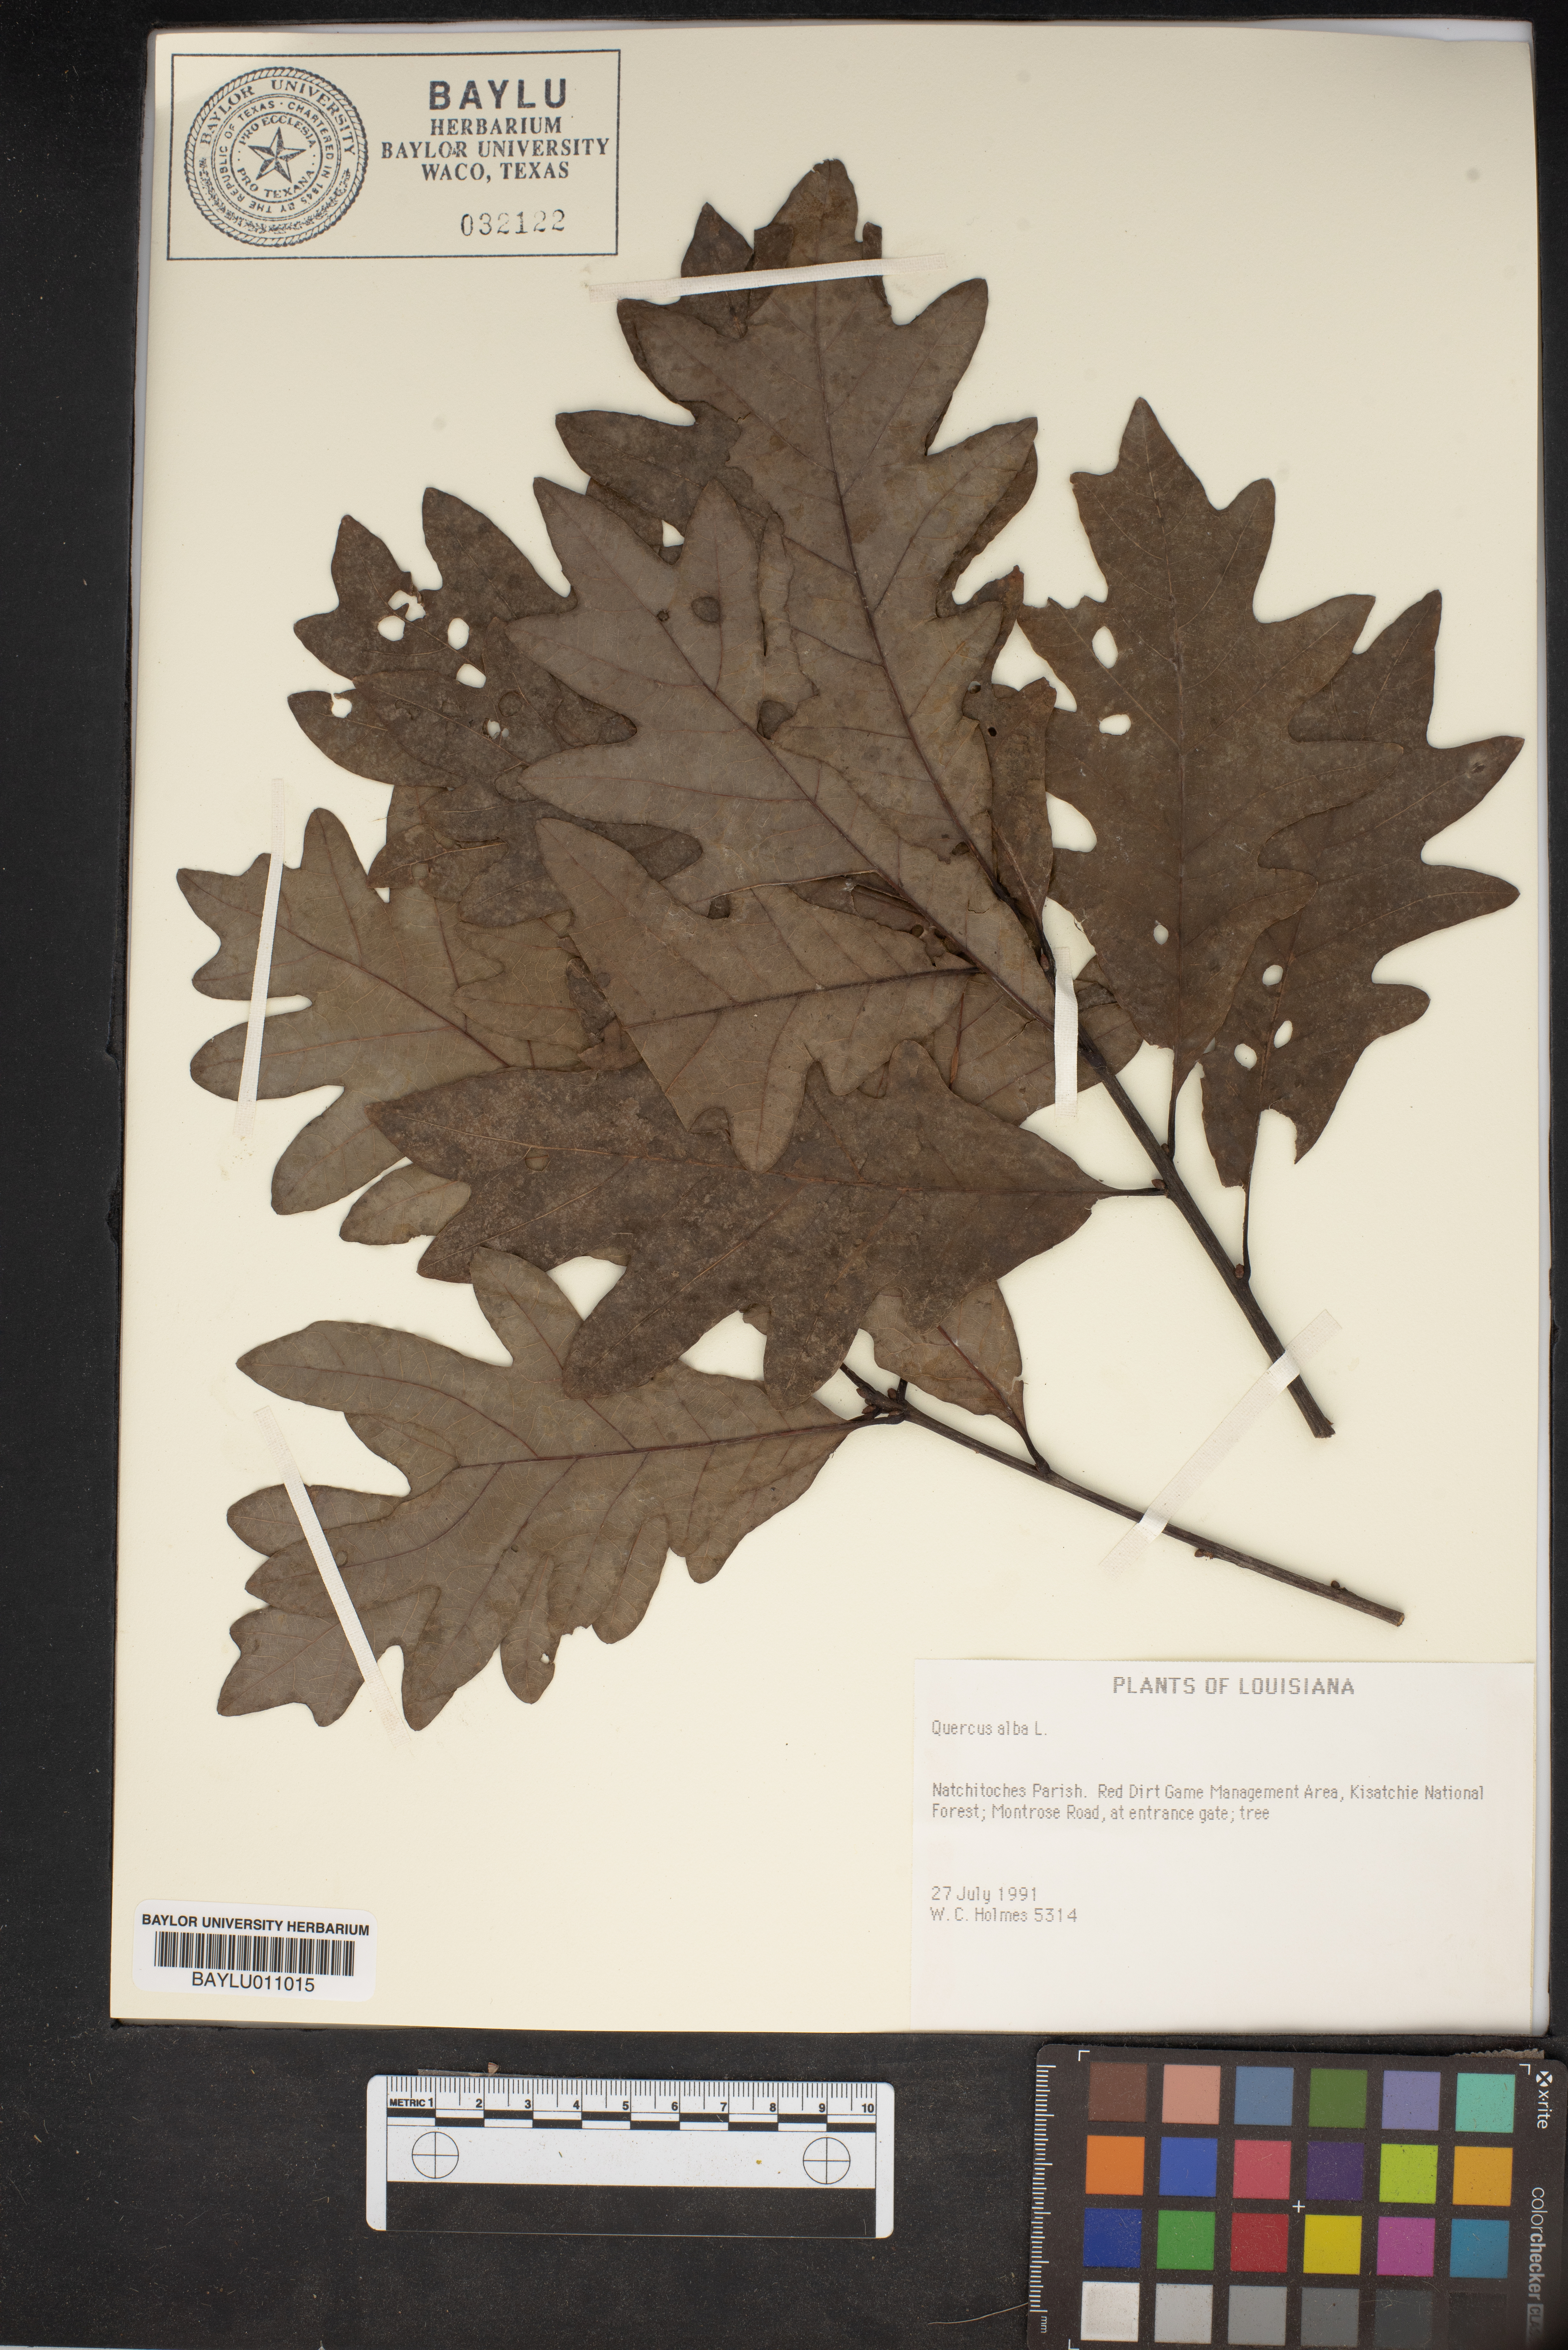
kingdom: Plantae
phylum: Tracheophyta
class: Magnoliopsida
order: Fagales
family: Fagaceae
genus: Quercus
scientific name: Quercus alba
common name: White oak
